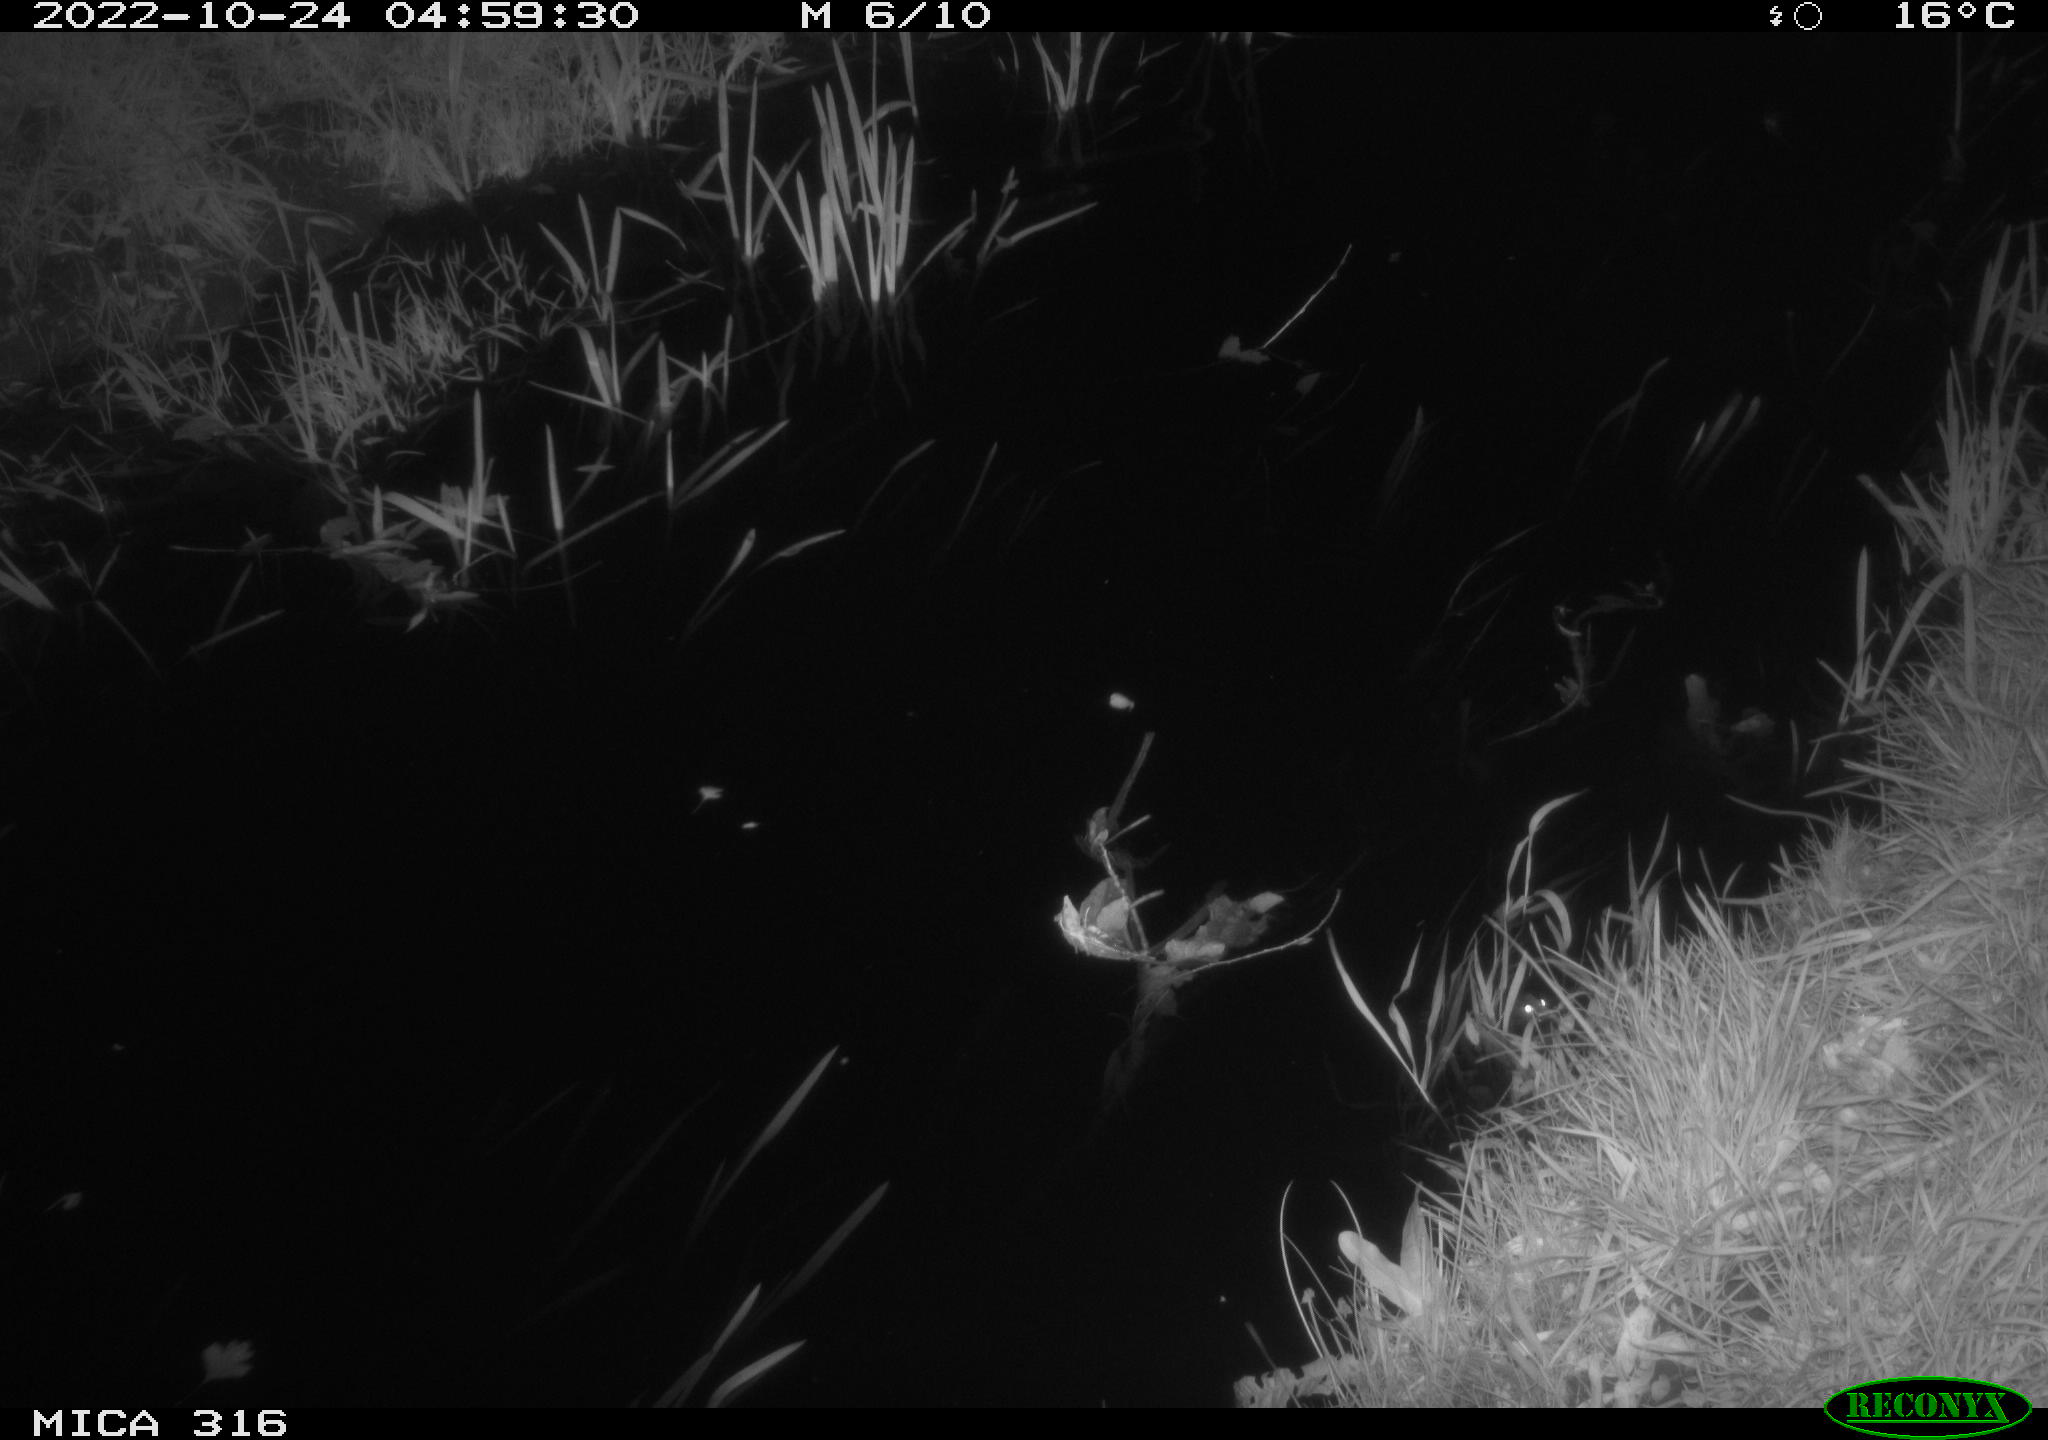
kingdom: Animalia
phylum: Chordata
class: Mammalia
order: Rodentia
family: Muridae
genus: Rattus
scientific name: Rattus norvegicus
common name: Brown rat
